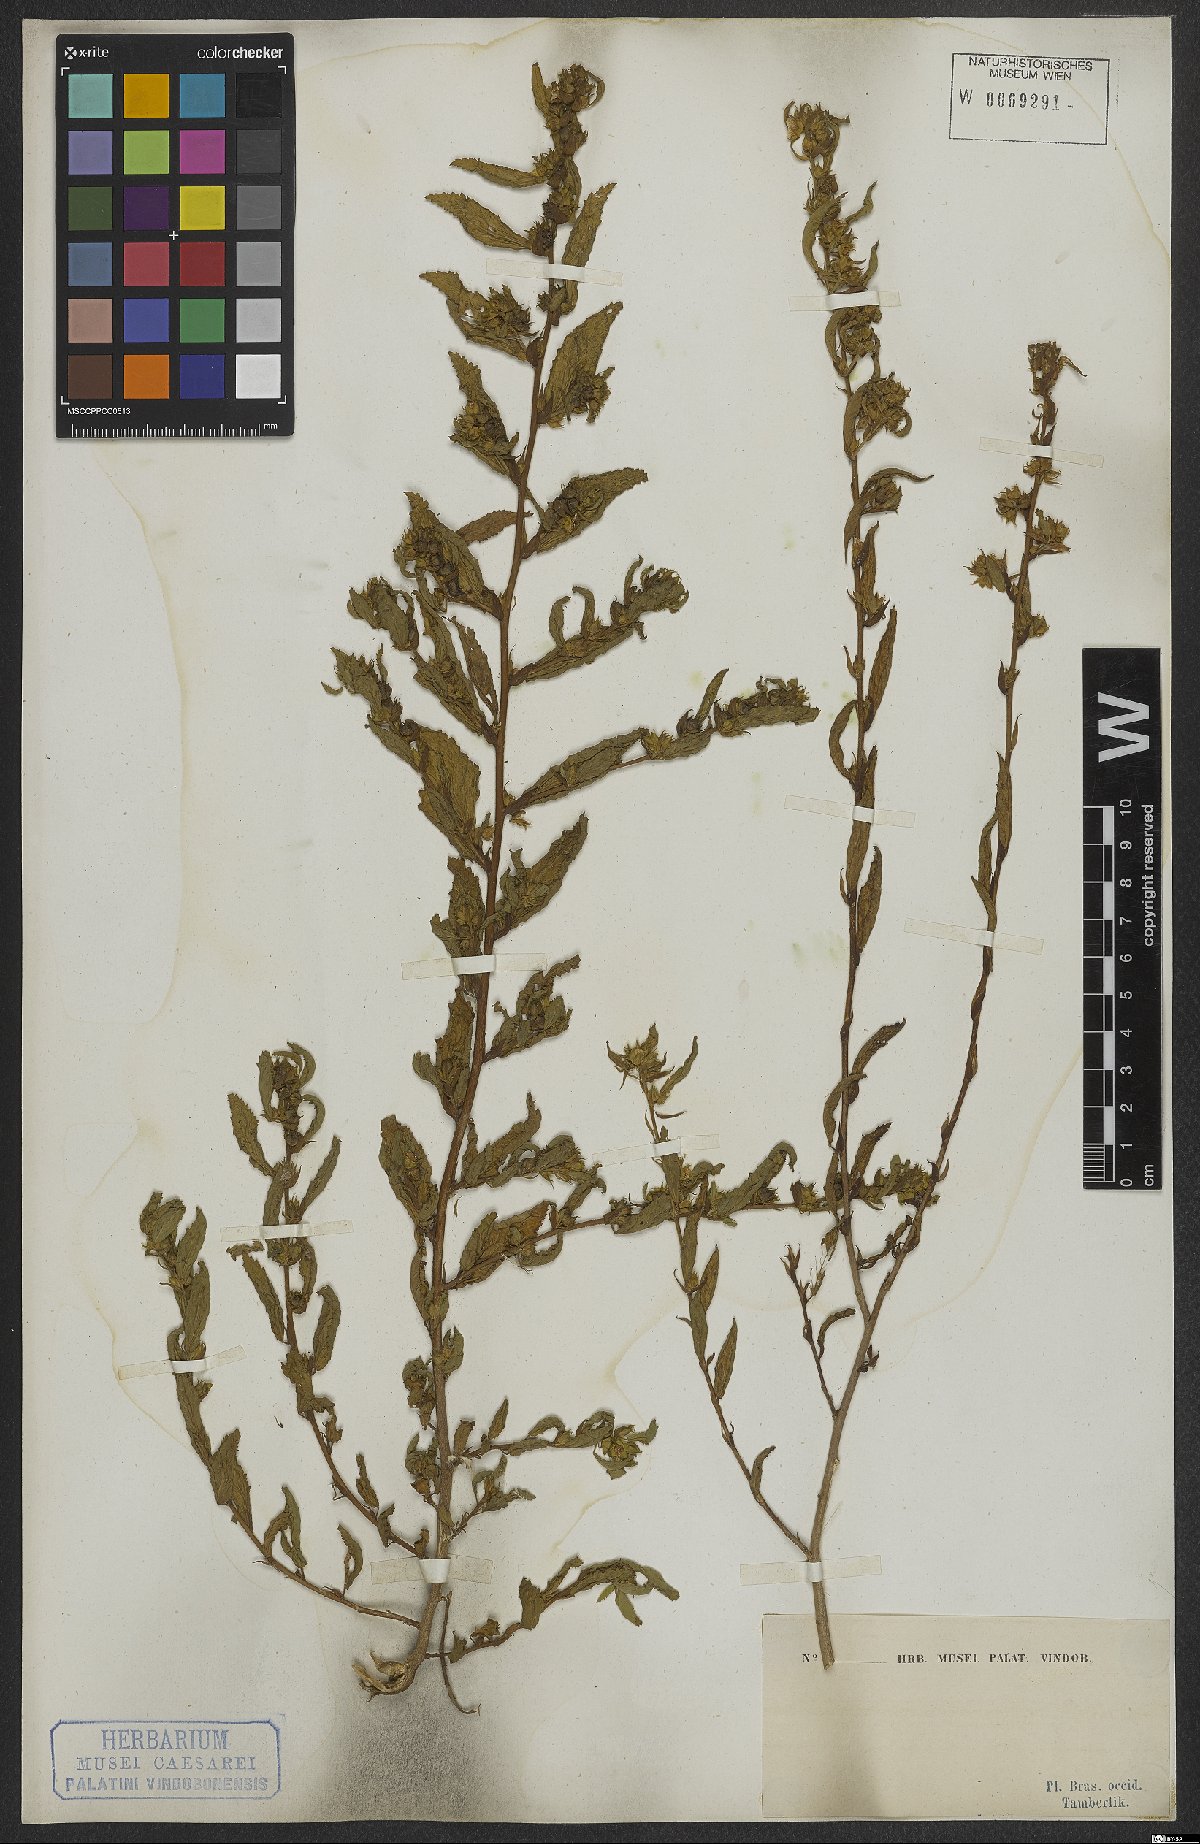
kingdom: Plantae
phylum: Tracheophyta
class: Magnoliopsida
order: Malvales
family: Malvaceae
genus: Sida
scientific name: Sida glomerata
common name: Clustered fanpetals
